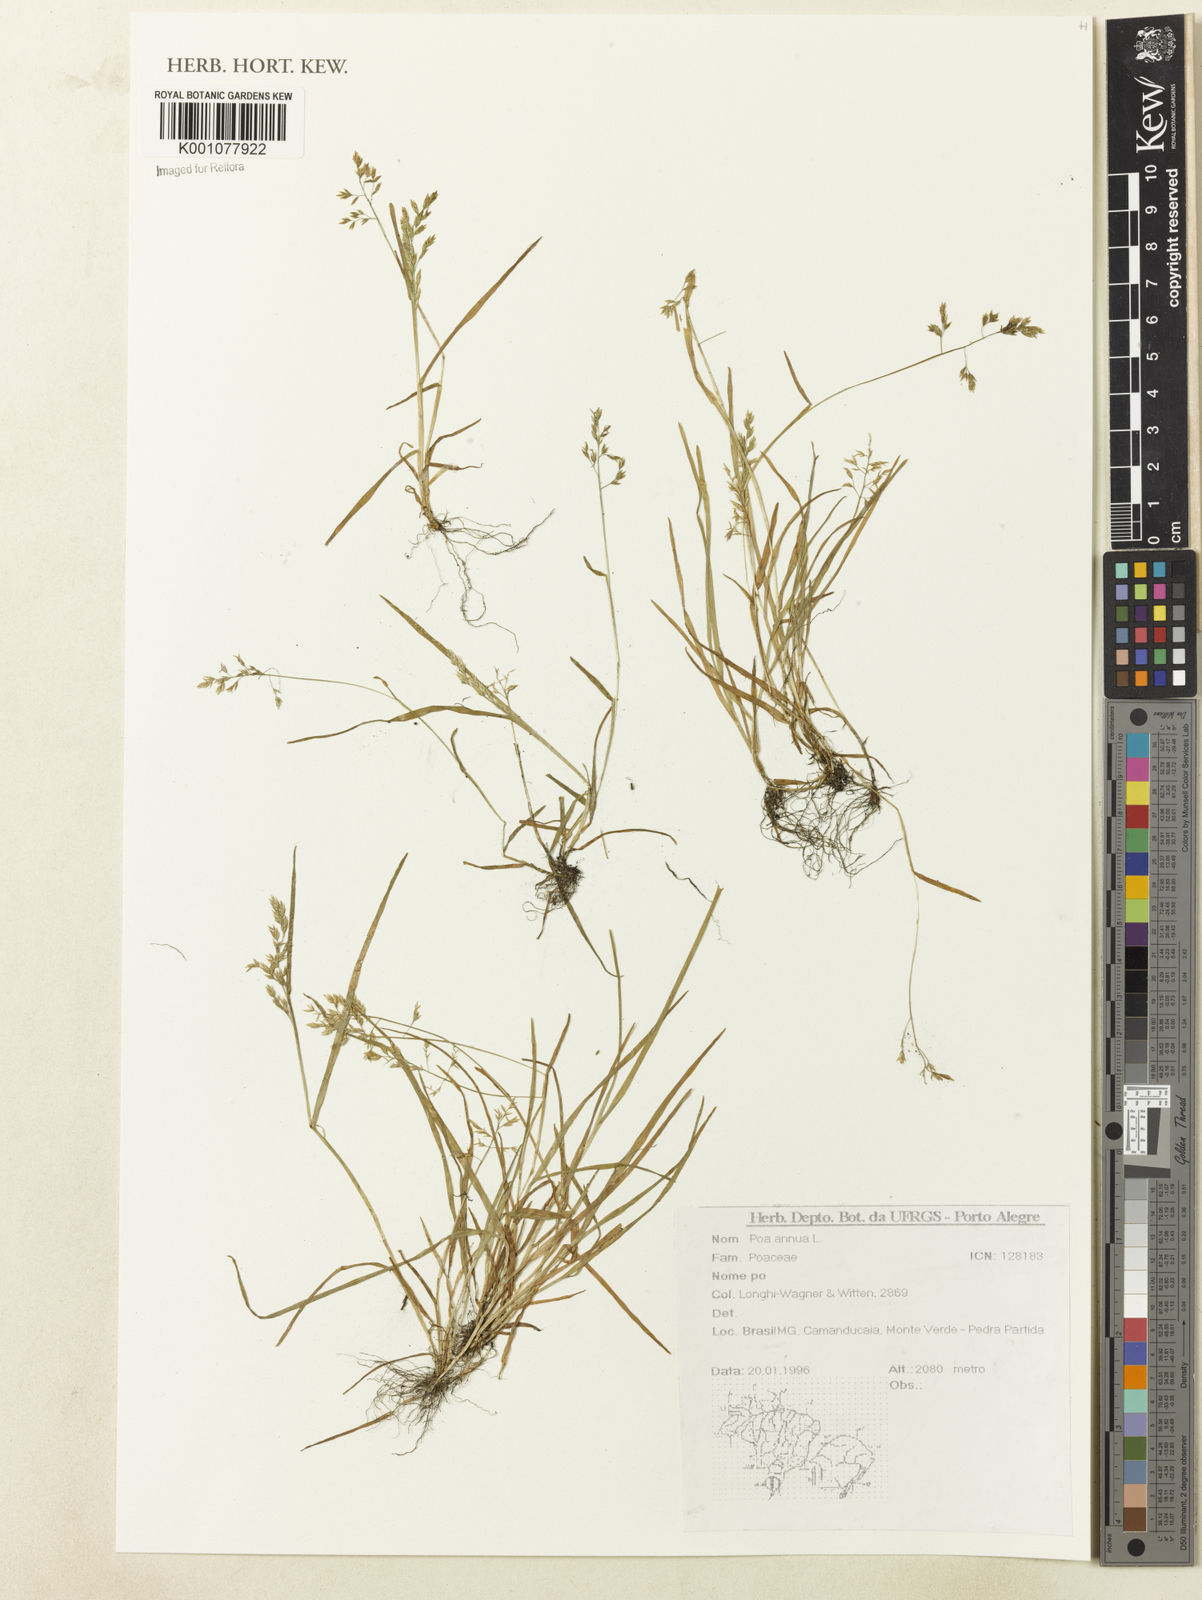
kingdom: Plantae
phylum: Tracheophyta
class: Liliopsida
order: Poales
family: Poaceae
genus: Poa
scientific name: Poa annua
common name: Annual bluegrass
